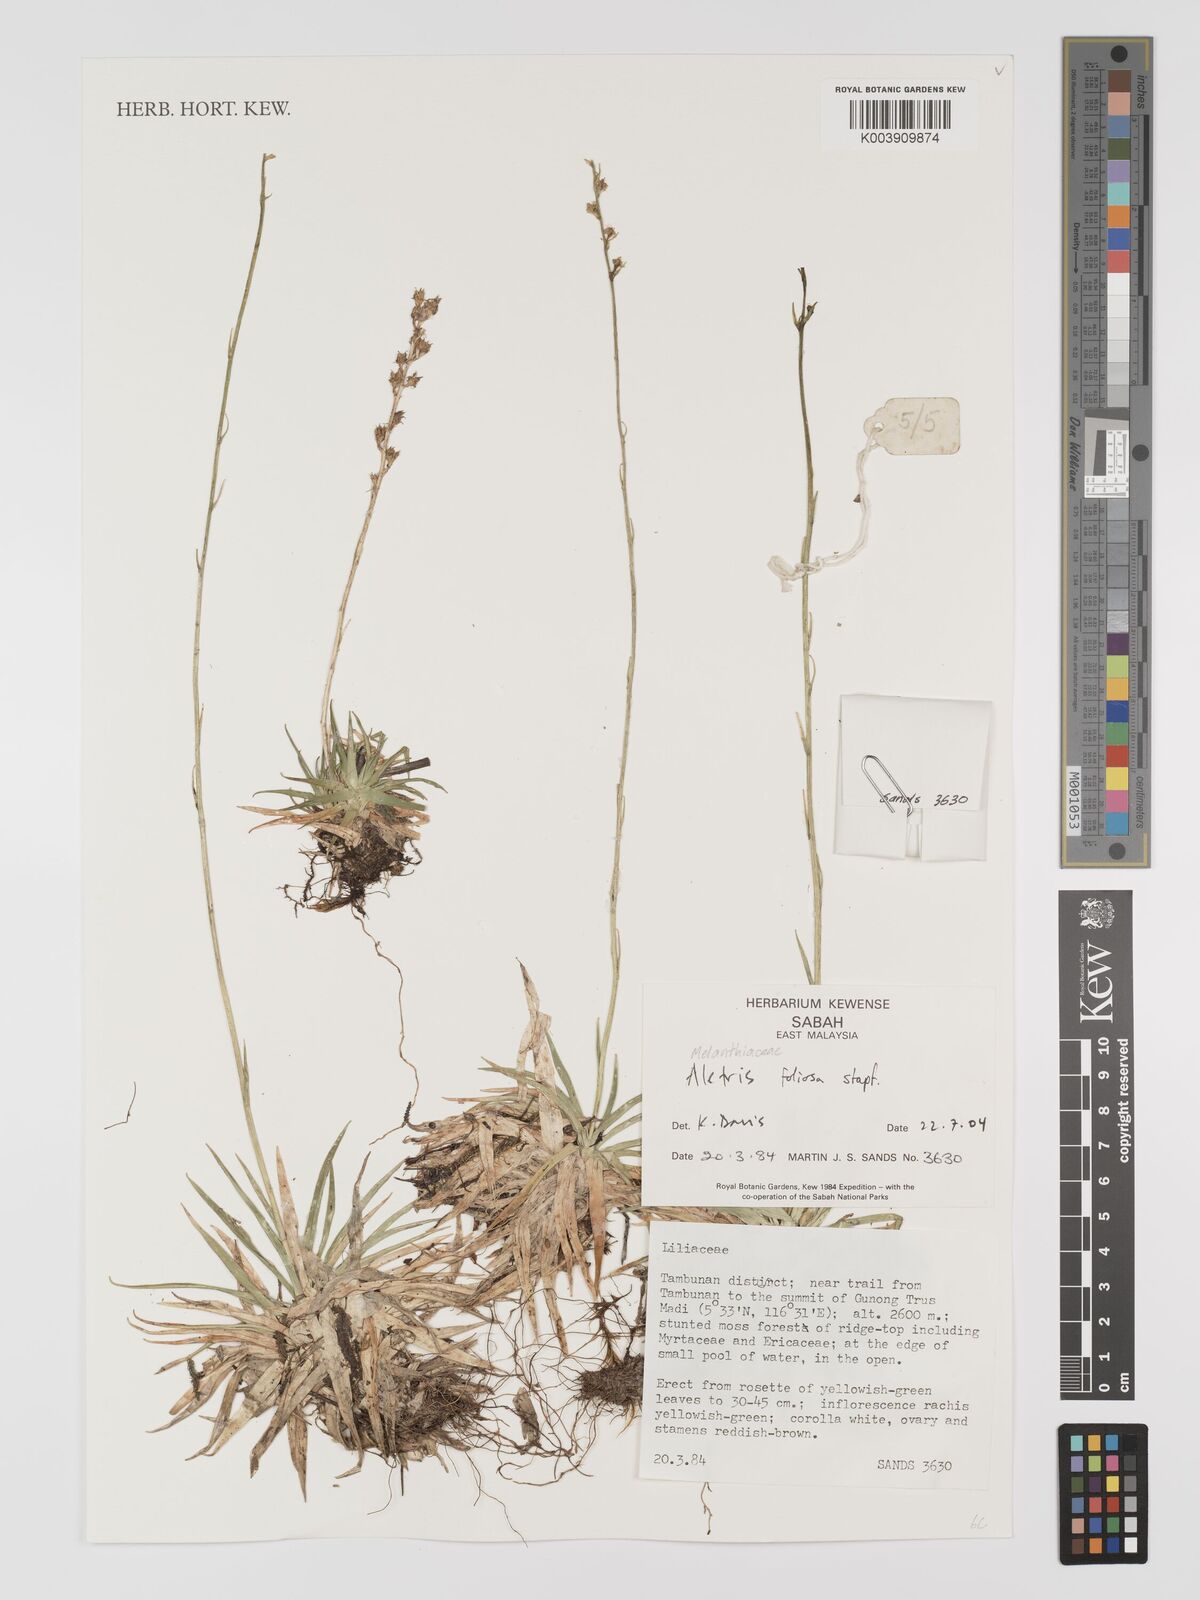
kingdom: Plantae
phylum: Tracheophyta
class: Liliopsida
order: Dioscoreales
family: Nartheciaceae
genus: Aletris
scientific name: Aletris foliolosa
